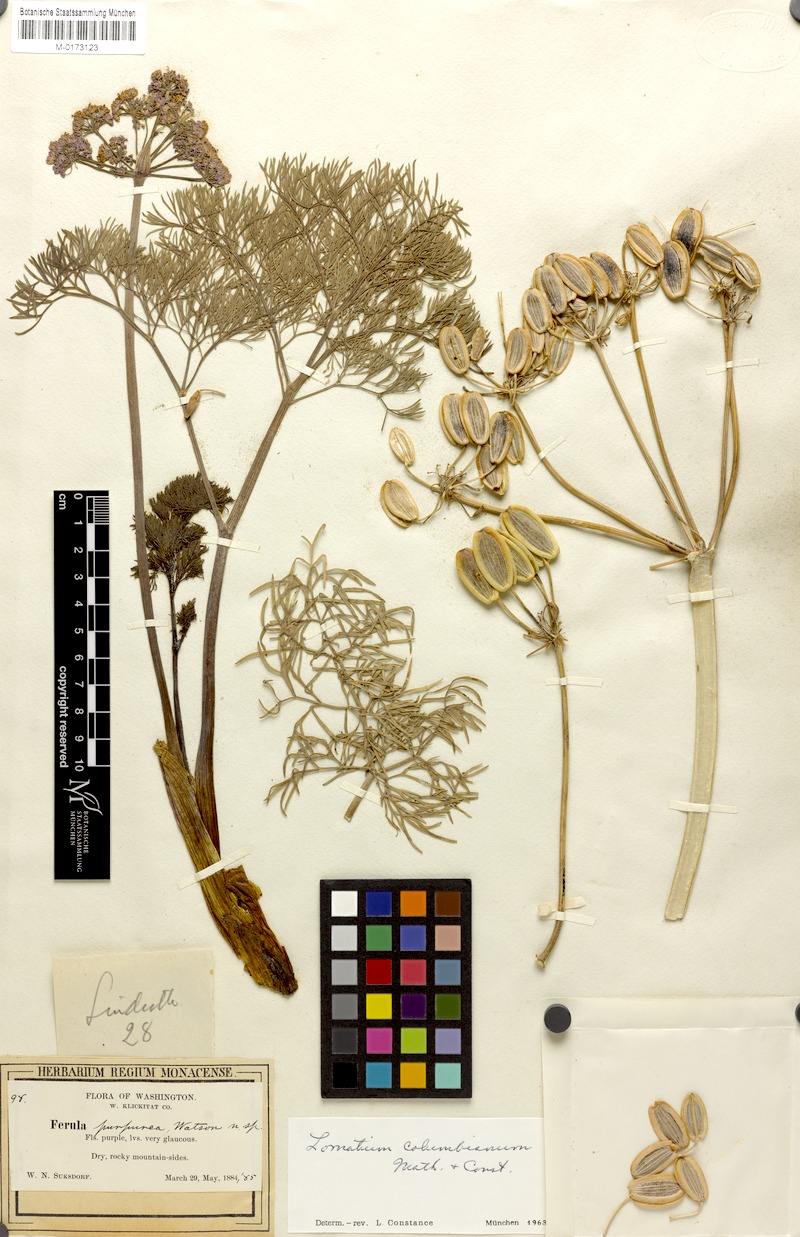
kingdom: Plantae
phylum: Tracheophyta
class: Magnoliopsida
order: Apiales
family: Apiaceae
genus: Lomatium
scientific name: Lomatium columbianum
